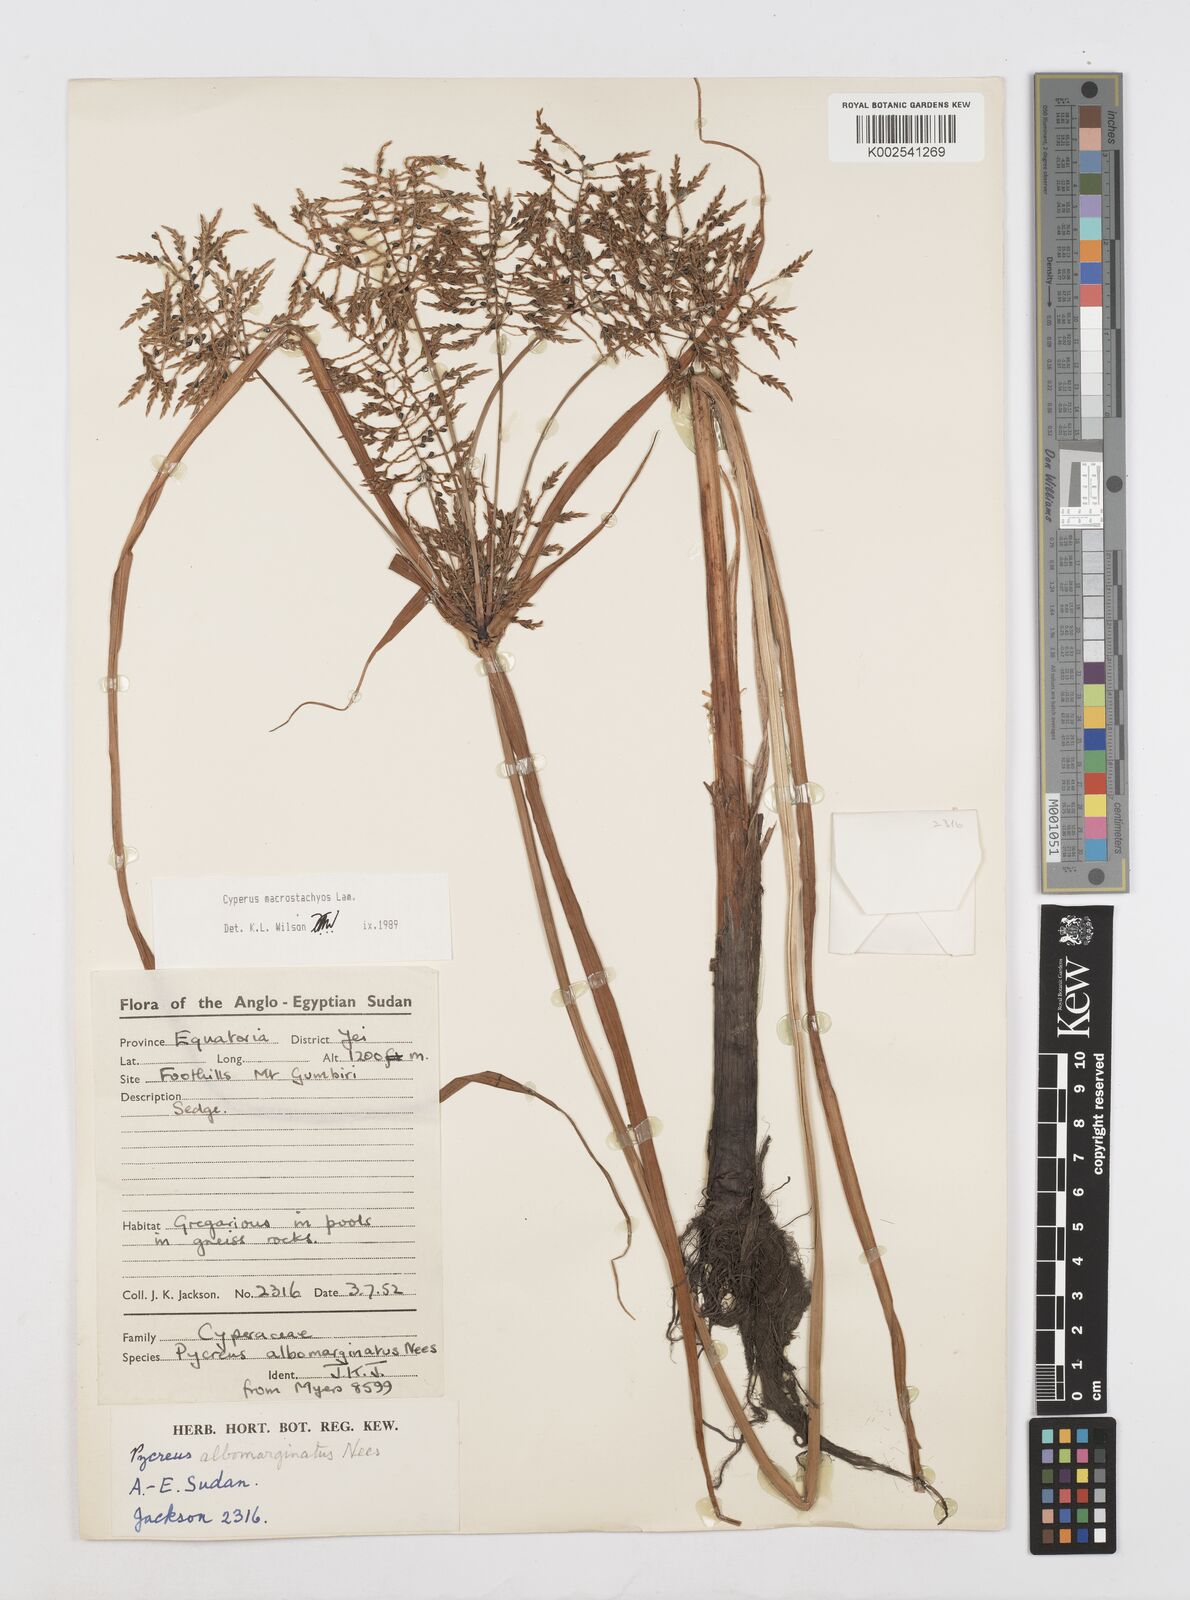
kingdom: Plantae
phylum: Tracheophyta
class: Liliopsida
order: Poales
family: Cyperaceae
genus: Cyperus
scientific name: Cyperus macrostachyos
